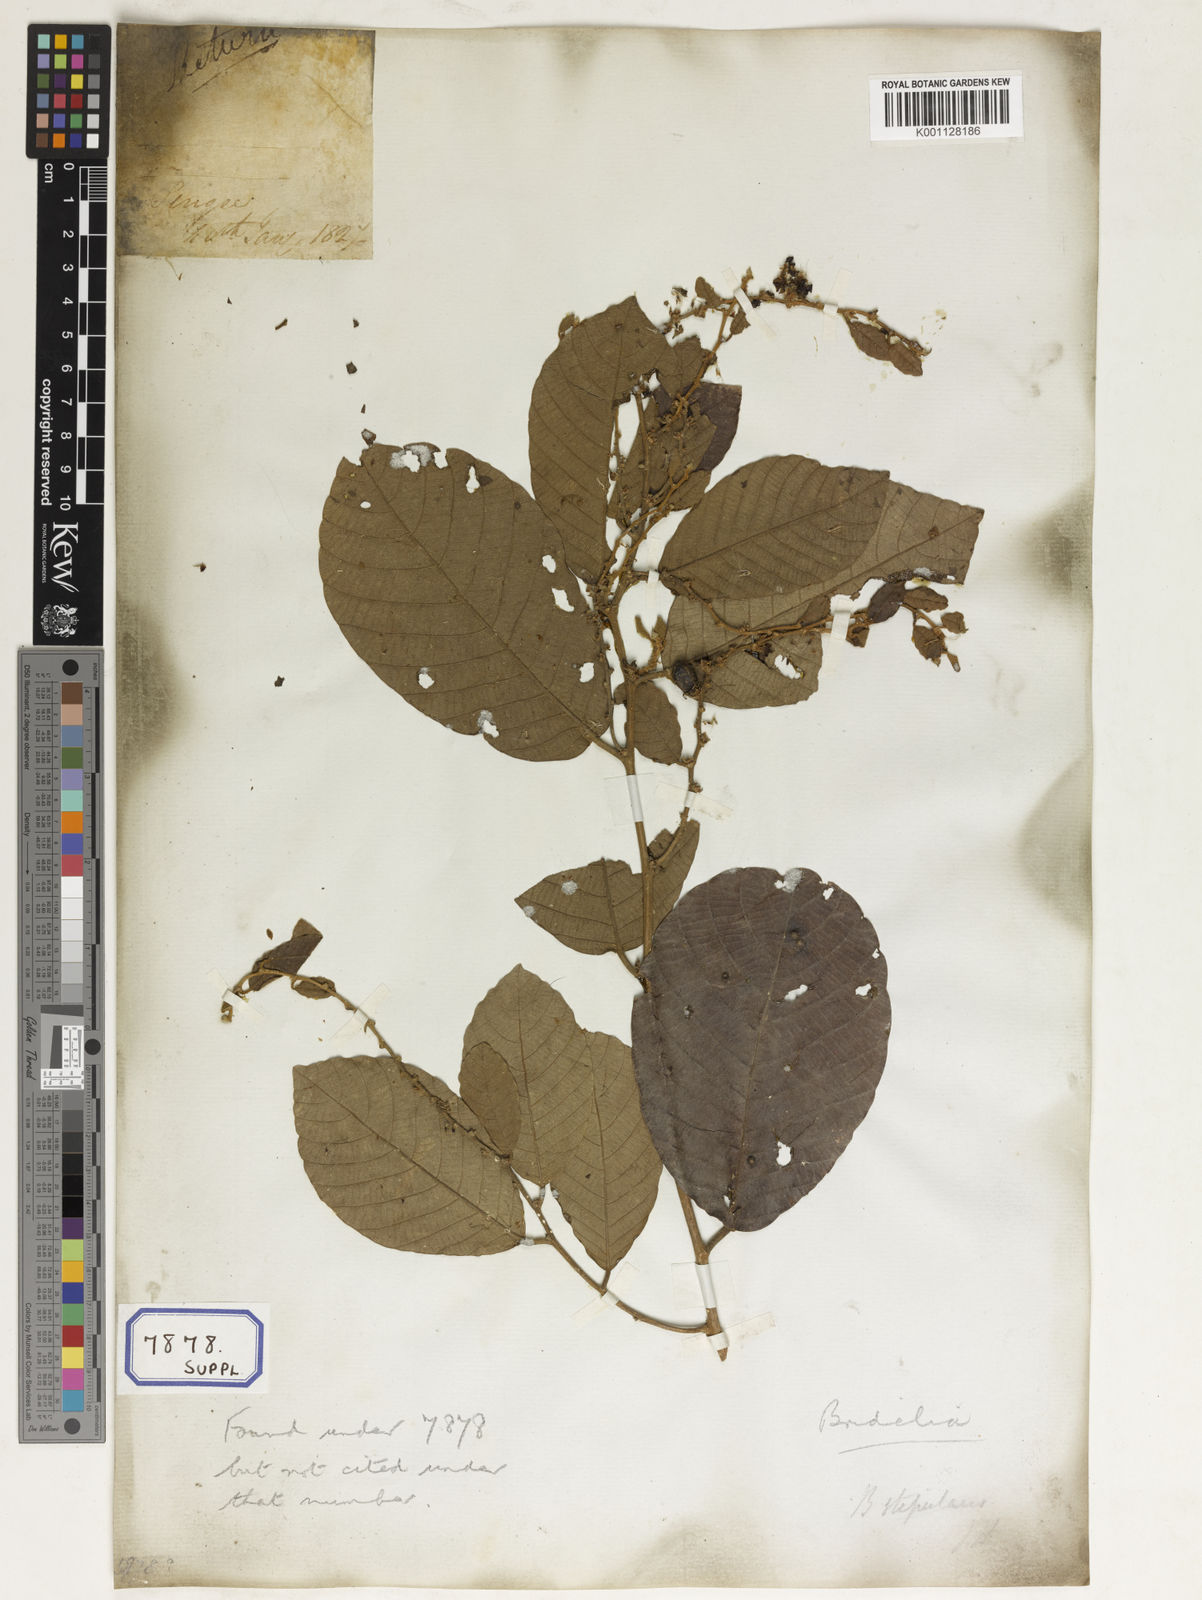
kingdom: Plantae
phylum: Tracheophyta
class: Magnoliopsida
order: Malpighiales
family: Phyllanthaceae
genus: Bridelia
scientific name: Bridelia
